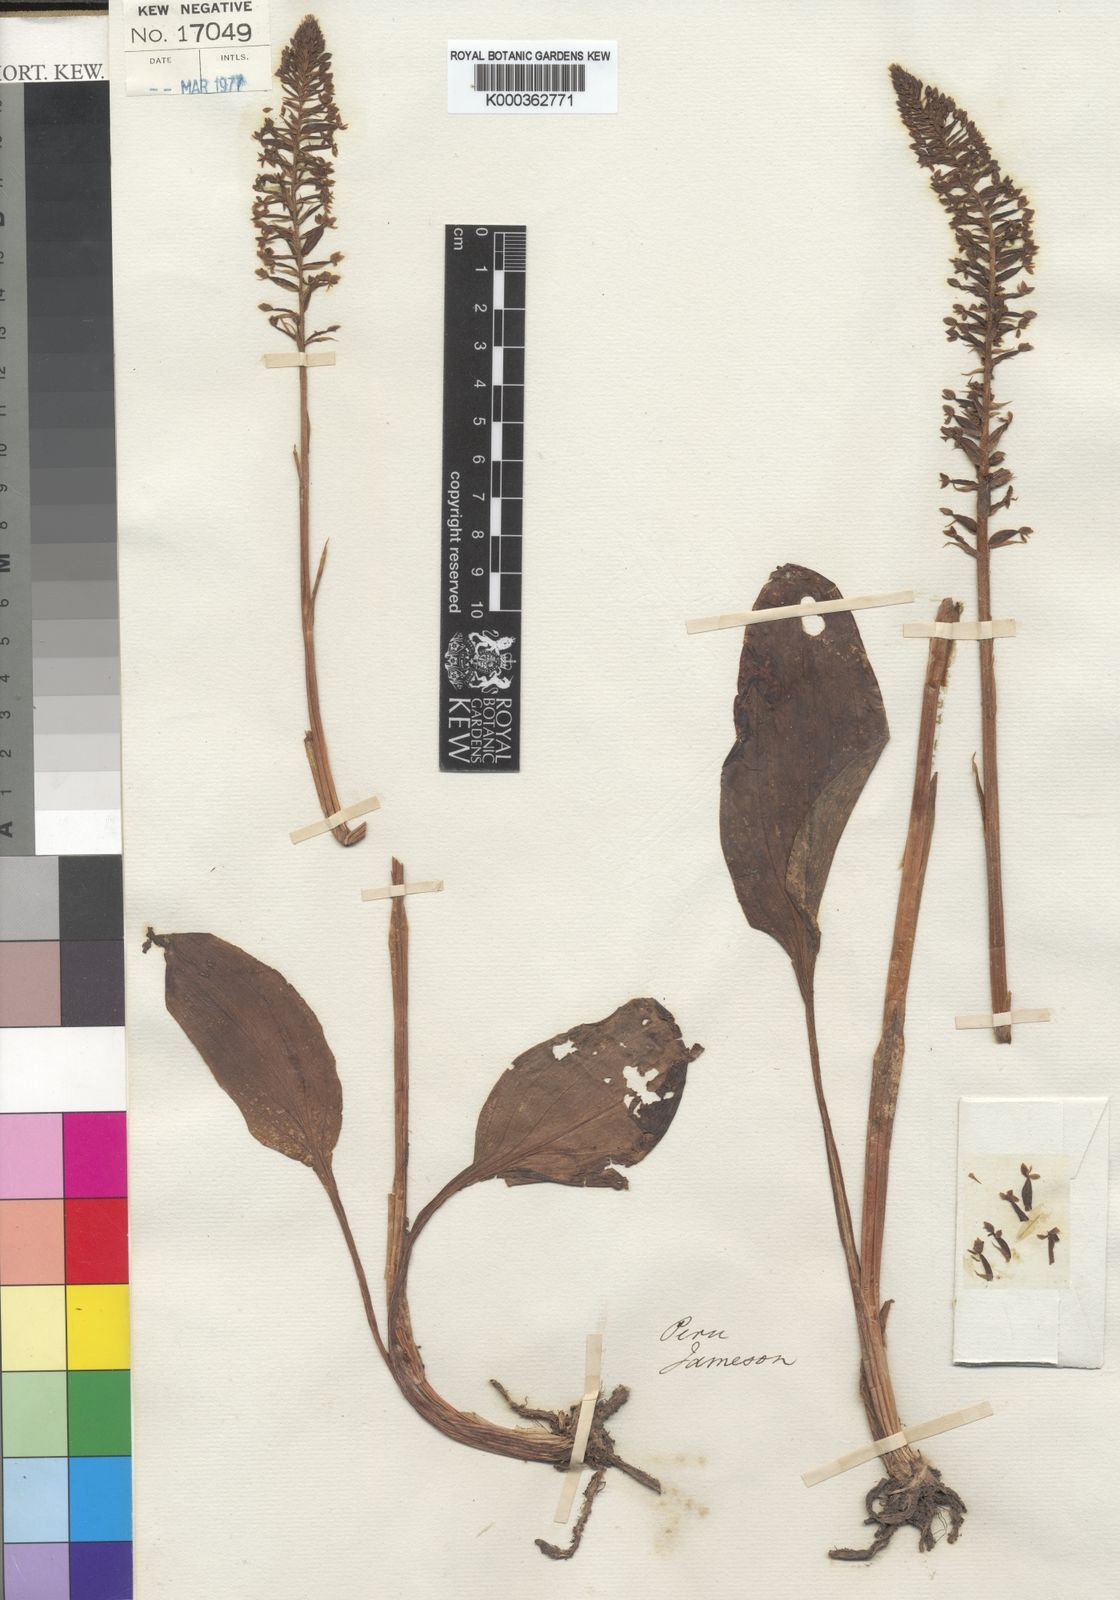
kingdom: Plantae
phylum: Tracheophyta
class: Liliopsida
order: Asparagales
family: Orchidaceae
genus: Cranichis
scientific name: Cranichis apiculata
